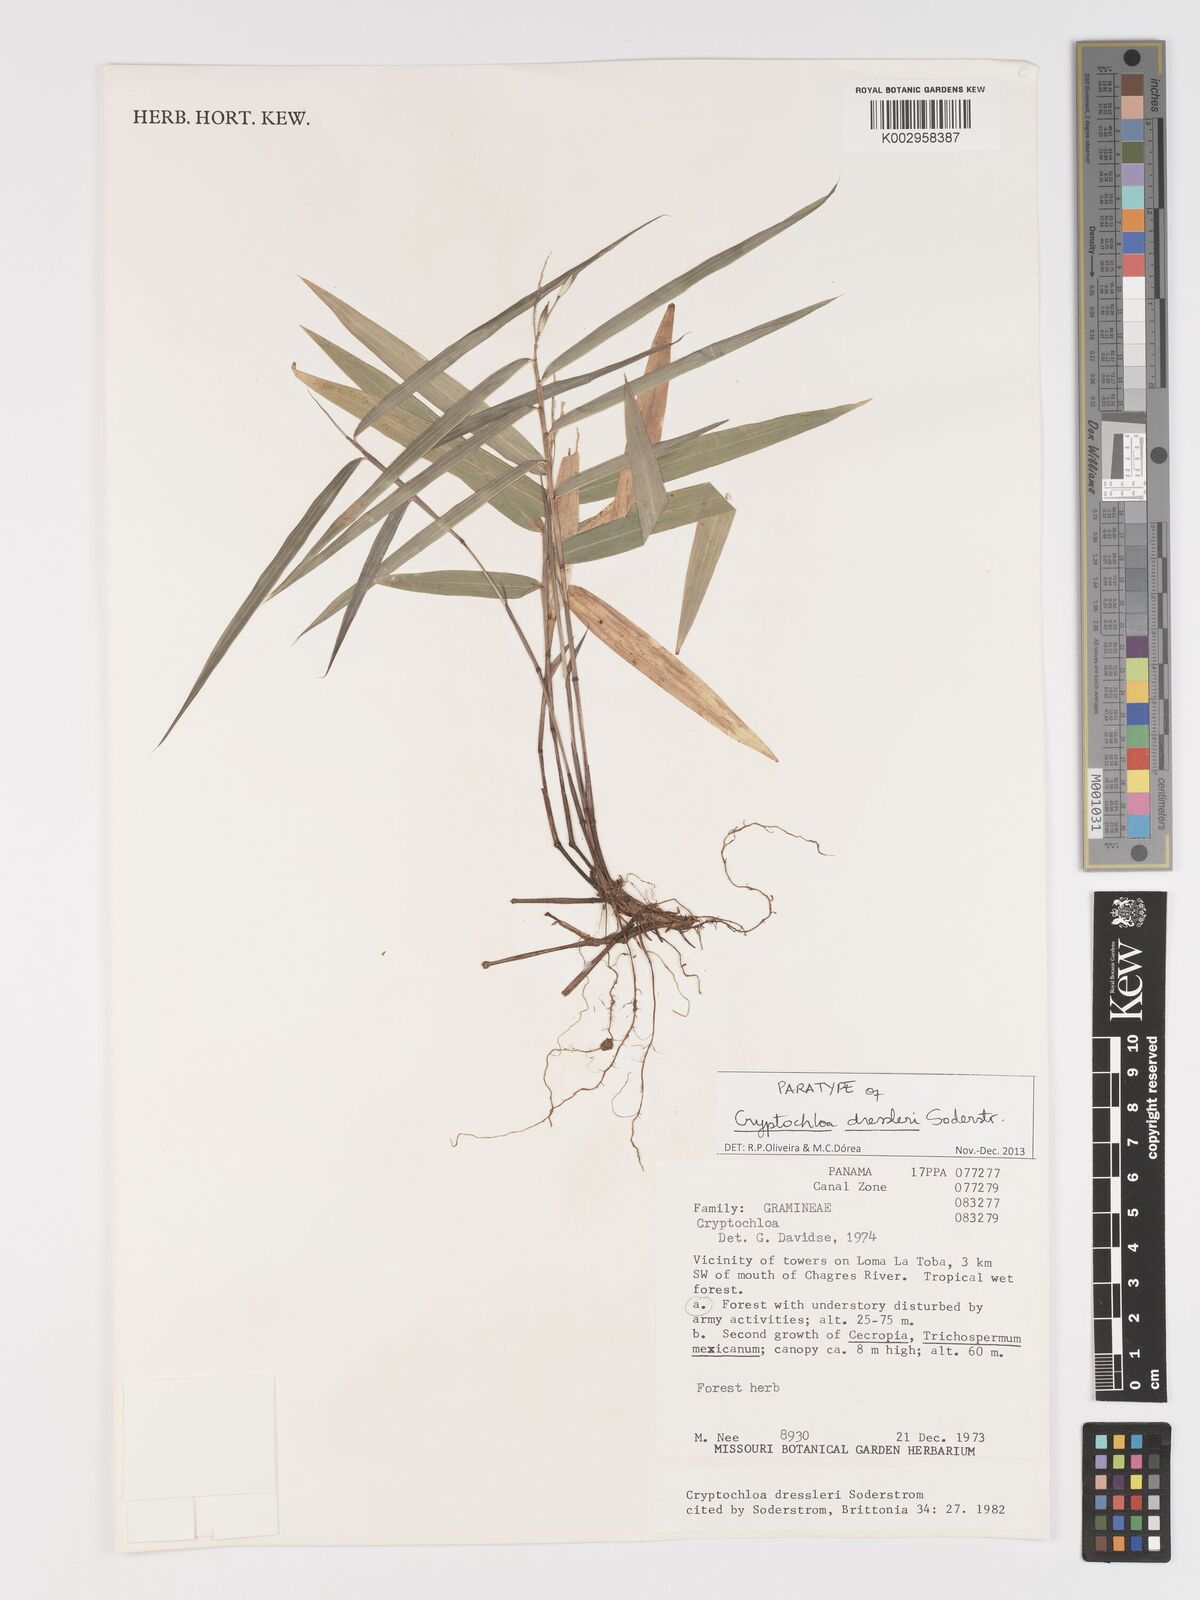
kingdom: Plantae
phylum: Tracheophyta
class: Liliopsida
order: Poales
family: Poaceae
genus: Cryptochloa
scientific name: Cryptochloa dressleri
